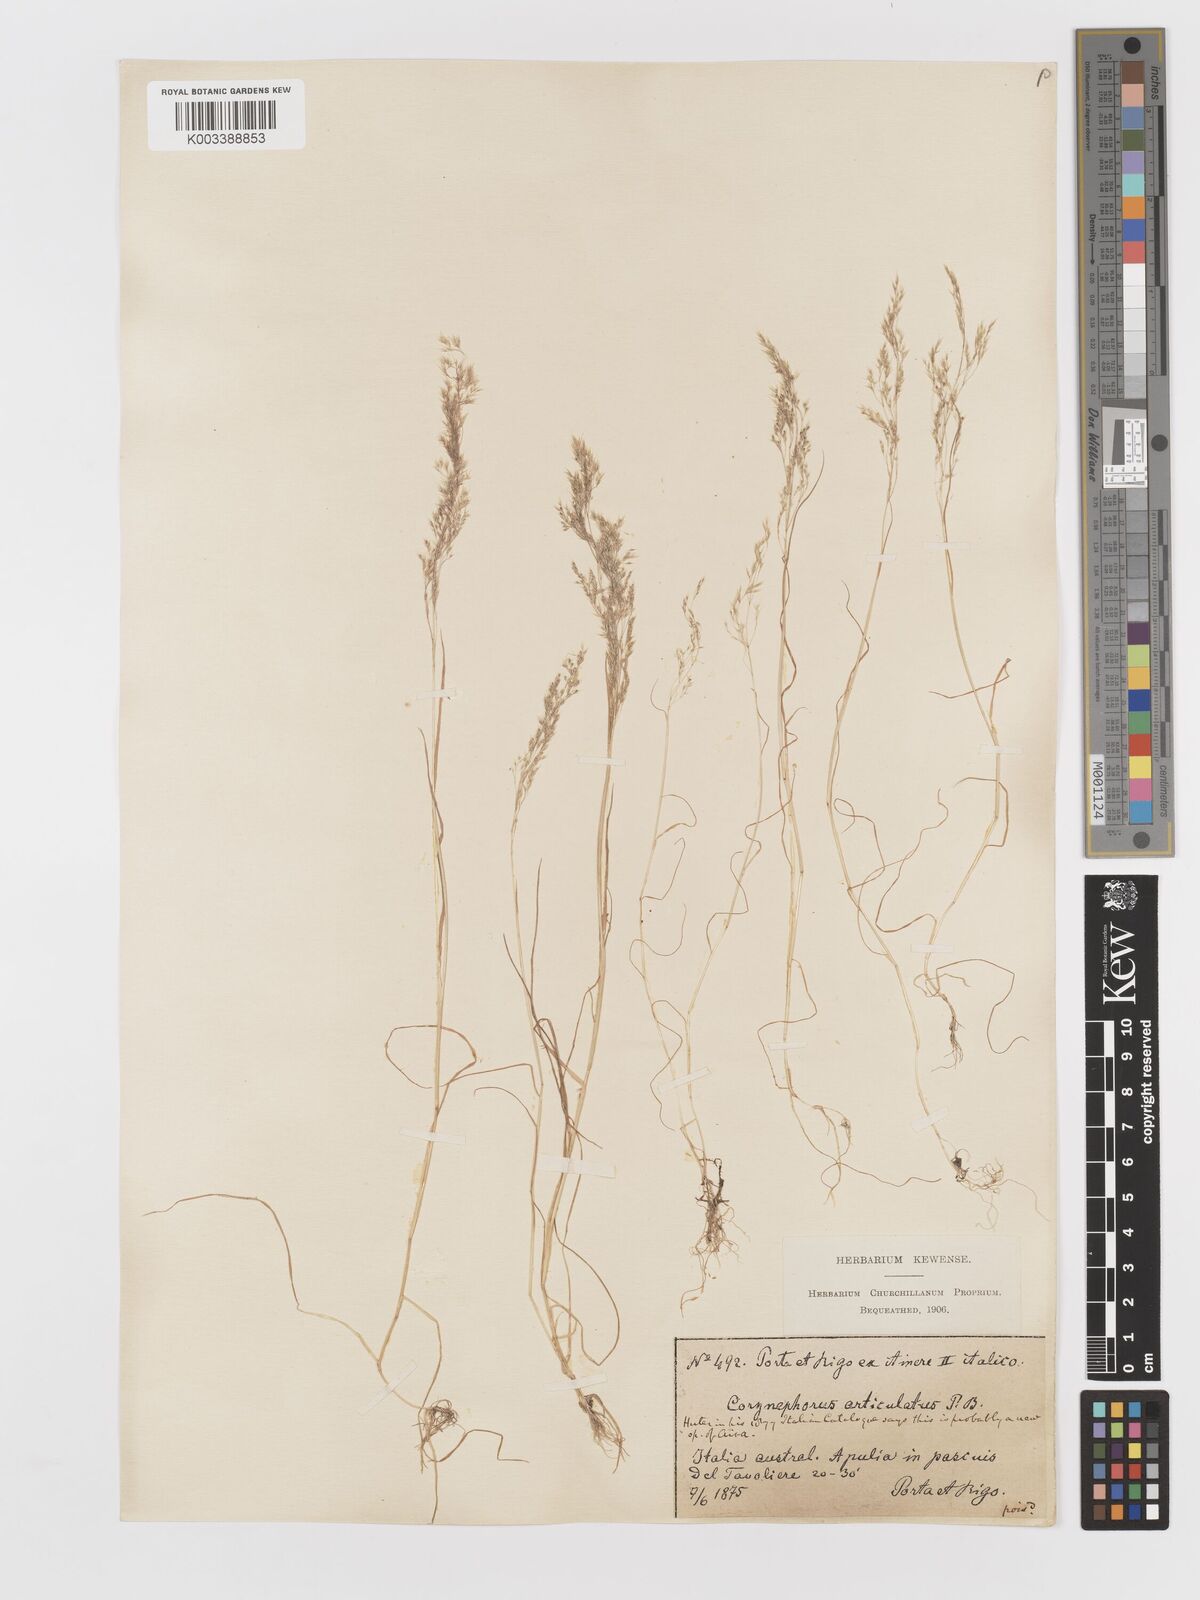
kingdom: Plantae
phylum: Tracheophyta
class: Liliopsida
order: Poales
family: Poaceae
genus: Corynephorus
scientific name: Corynephorus divaricatus
